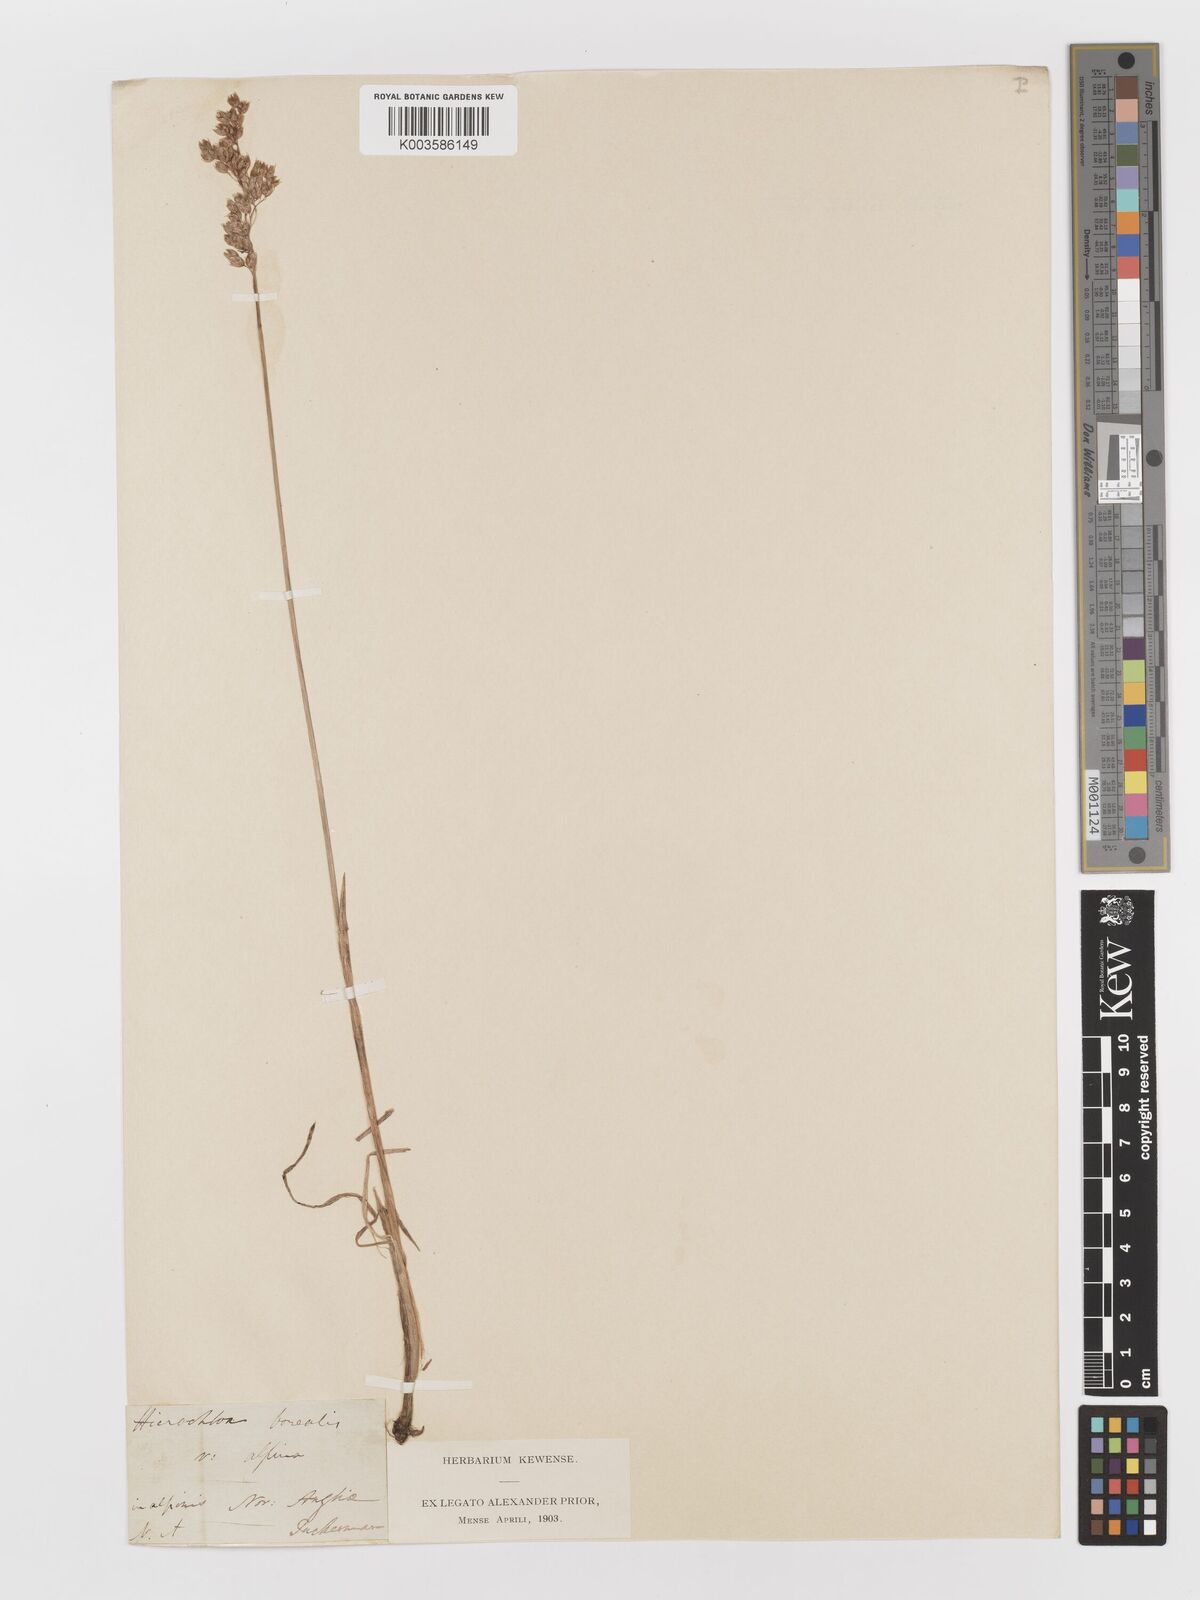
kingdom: Plantae
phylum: Tracheophyta
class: Liliopsida
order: Poales
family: Poaceae
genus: Anthoxanthum
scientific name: Anthoxanthum nitens
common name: Holy grass
